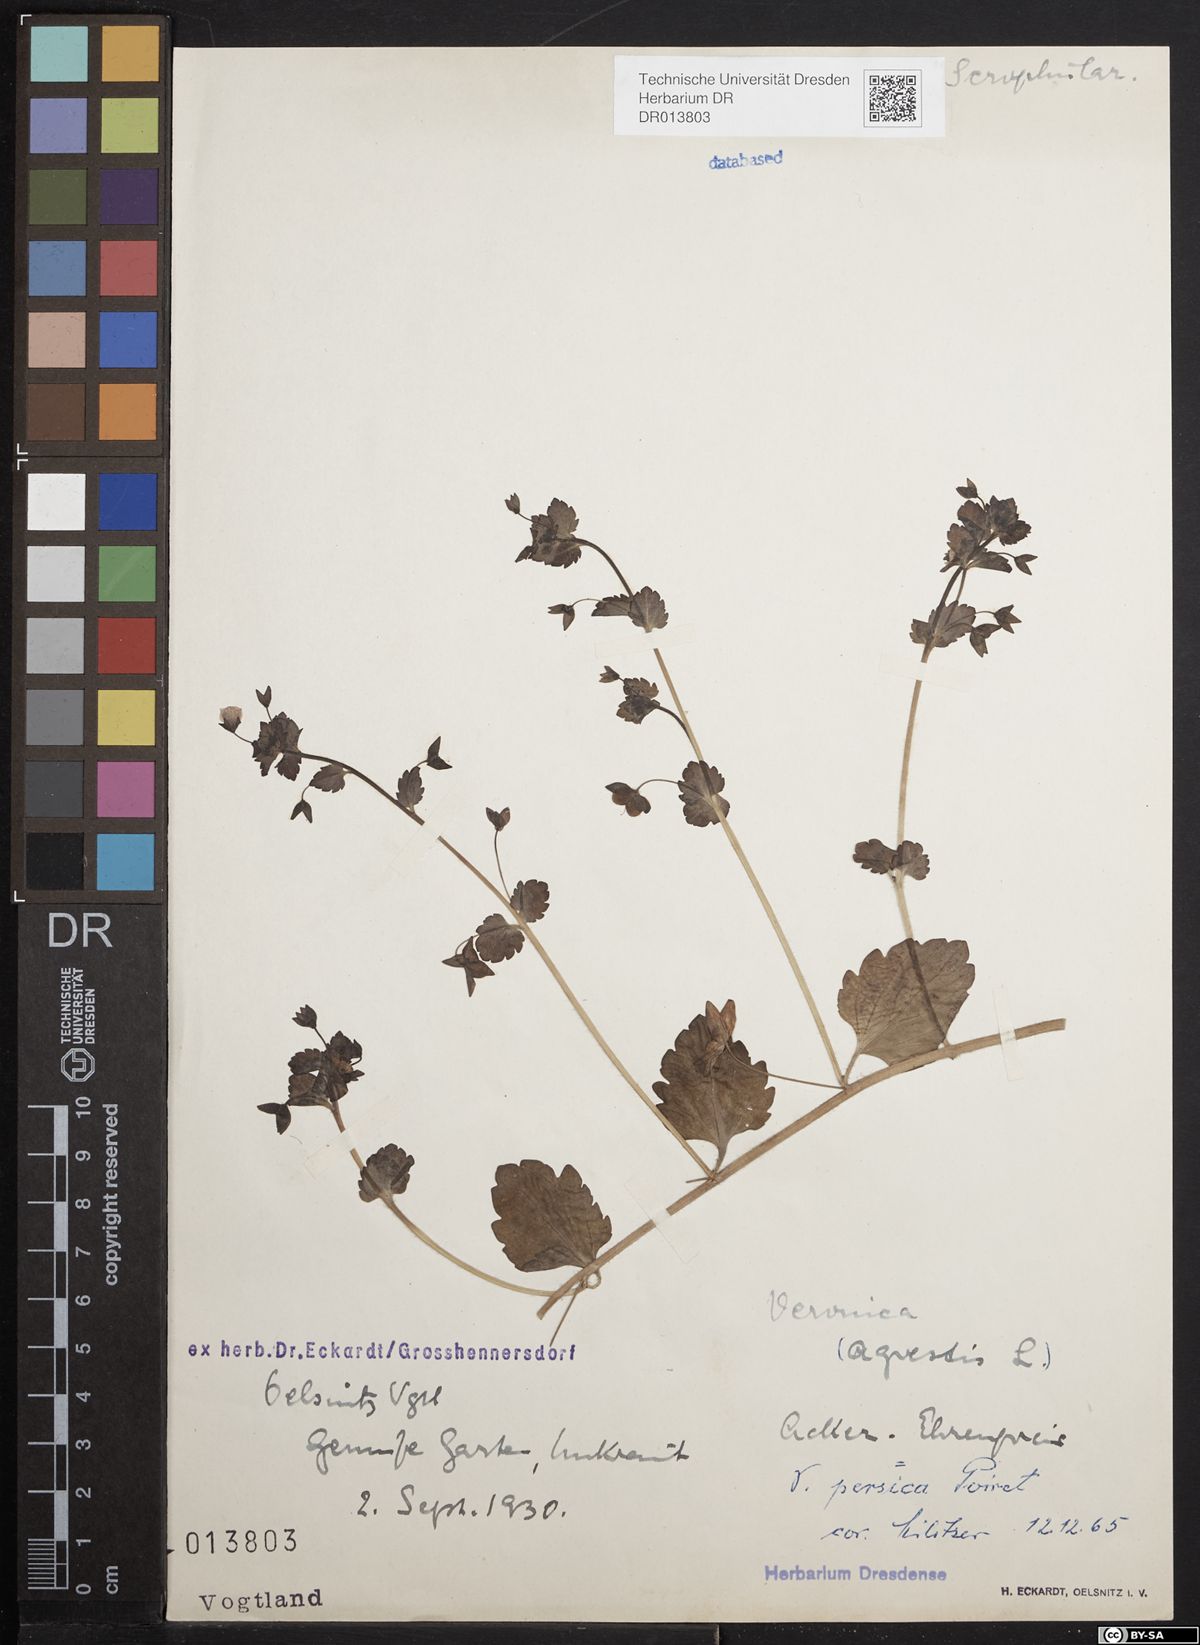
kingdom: Plantae
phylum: Tracheophyta
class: Magnoliopsida
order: Lamiales
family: Plantaginaceae
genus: Veronica
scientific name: Veronica persica
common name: Common field-speedwell
